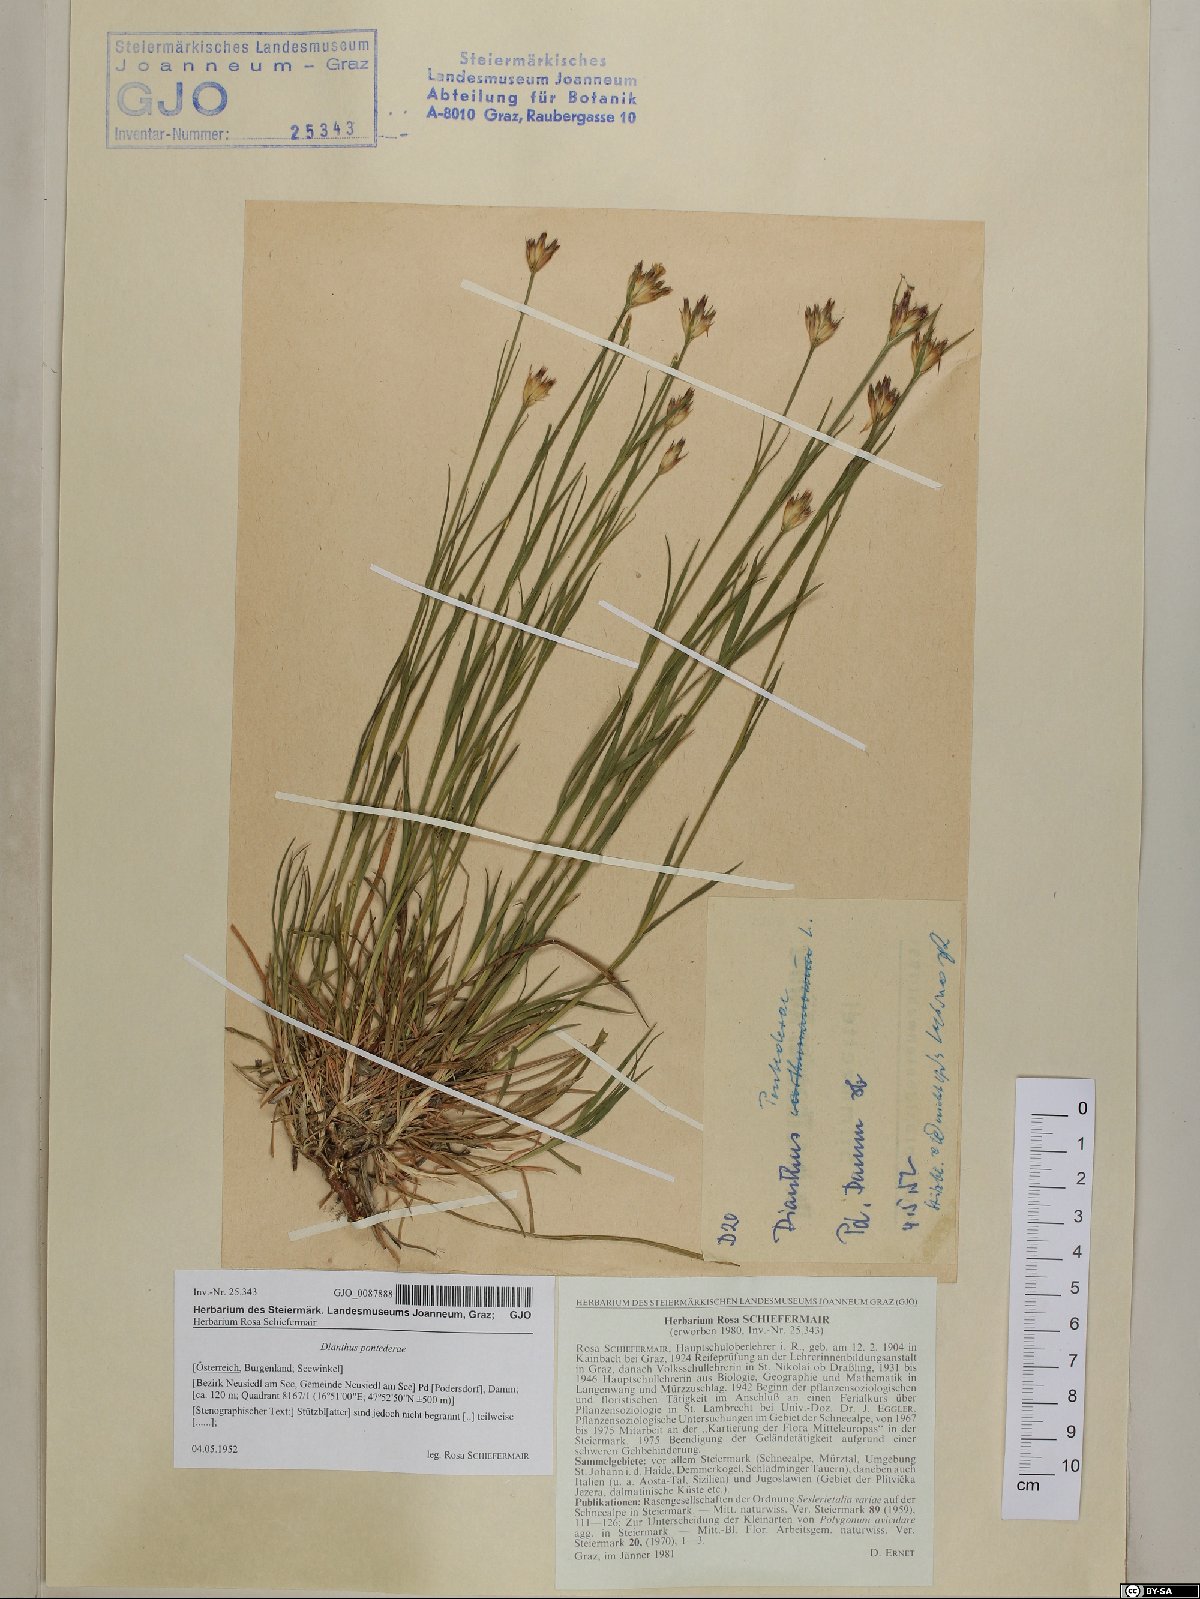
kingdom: Plantae
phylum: Tracheophyta
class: Magnoliopsida
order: Caryophyllales
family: Caryophyllaceae
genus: Dianthus
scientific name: Dianthus pontederae
